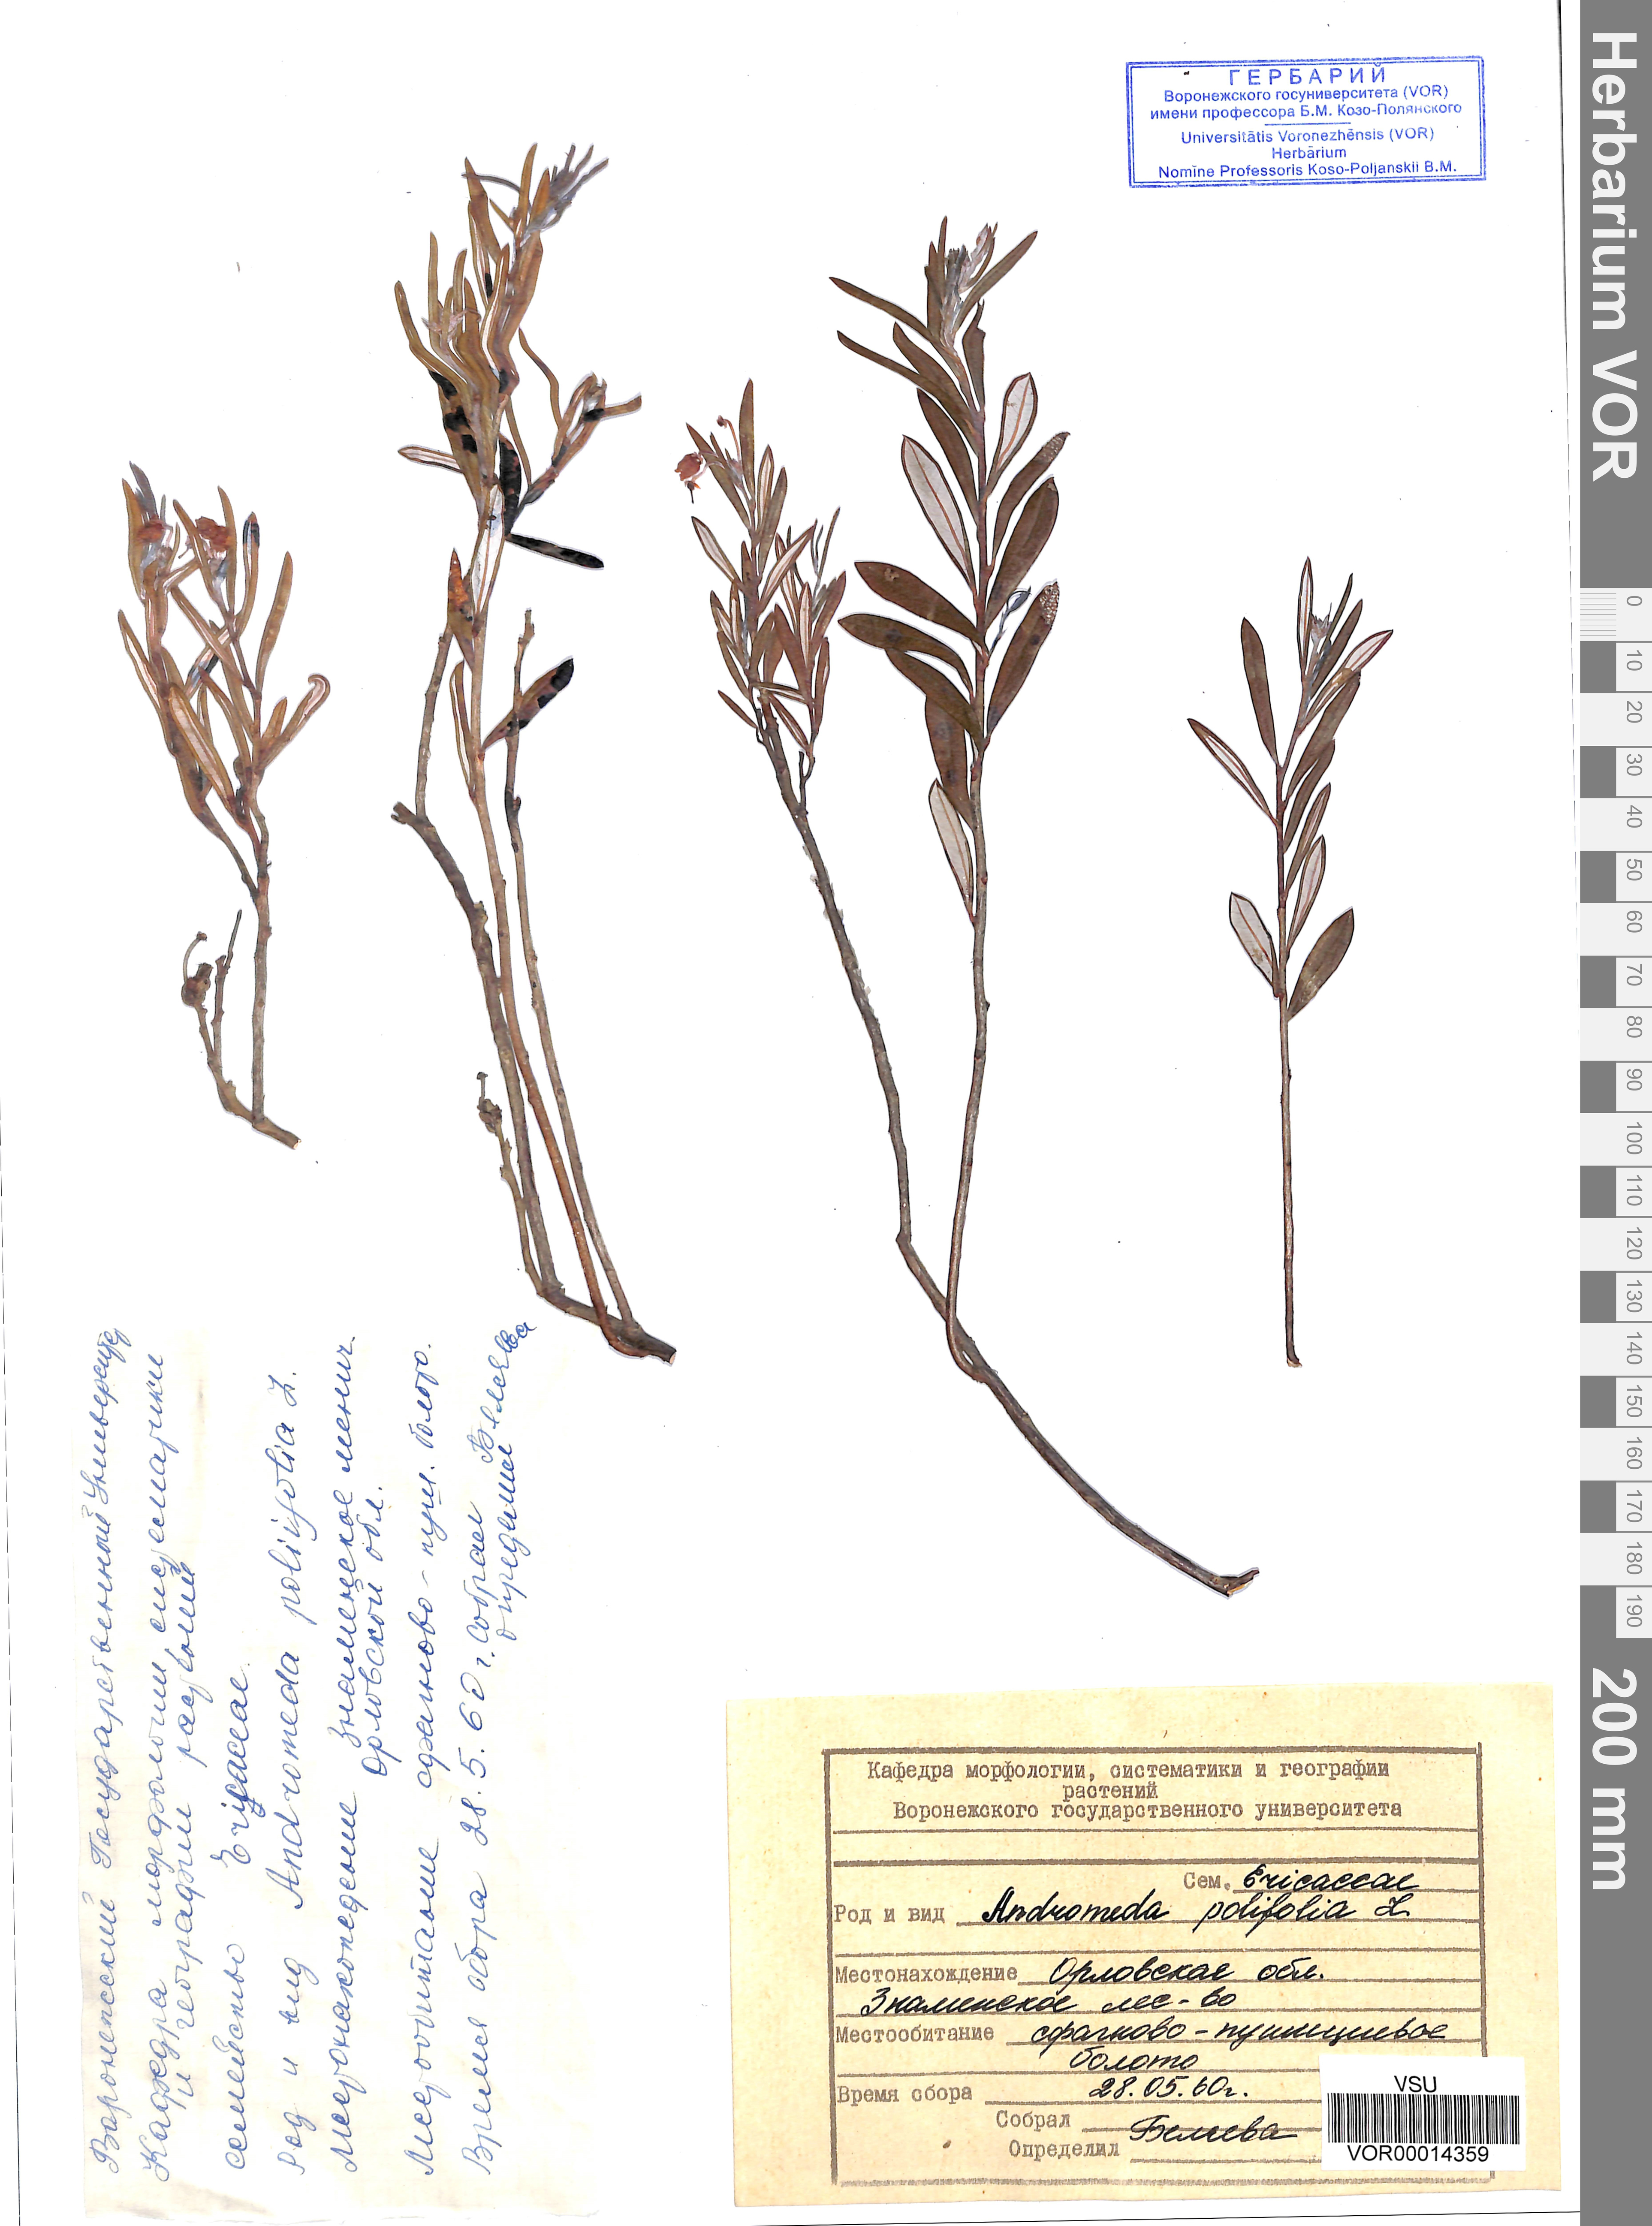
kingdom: Plantae
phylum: Tracheophyta
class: Magnoliopsida
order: Ericales
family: Ericaceae
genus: Andromeda
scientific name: Andromeda polifolia
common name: Bog-rosemary
